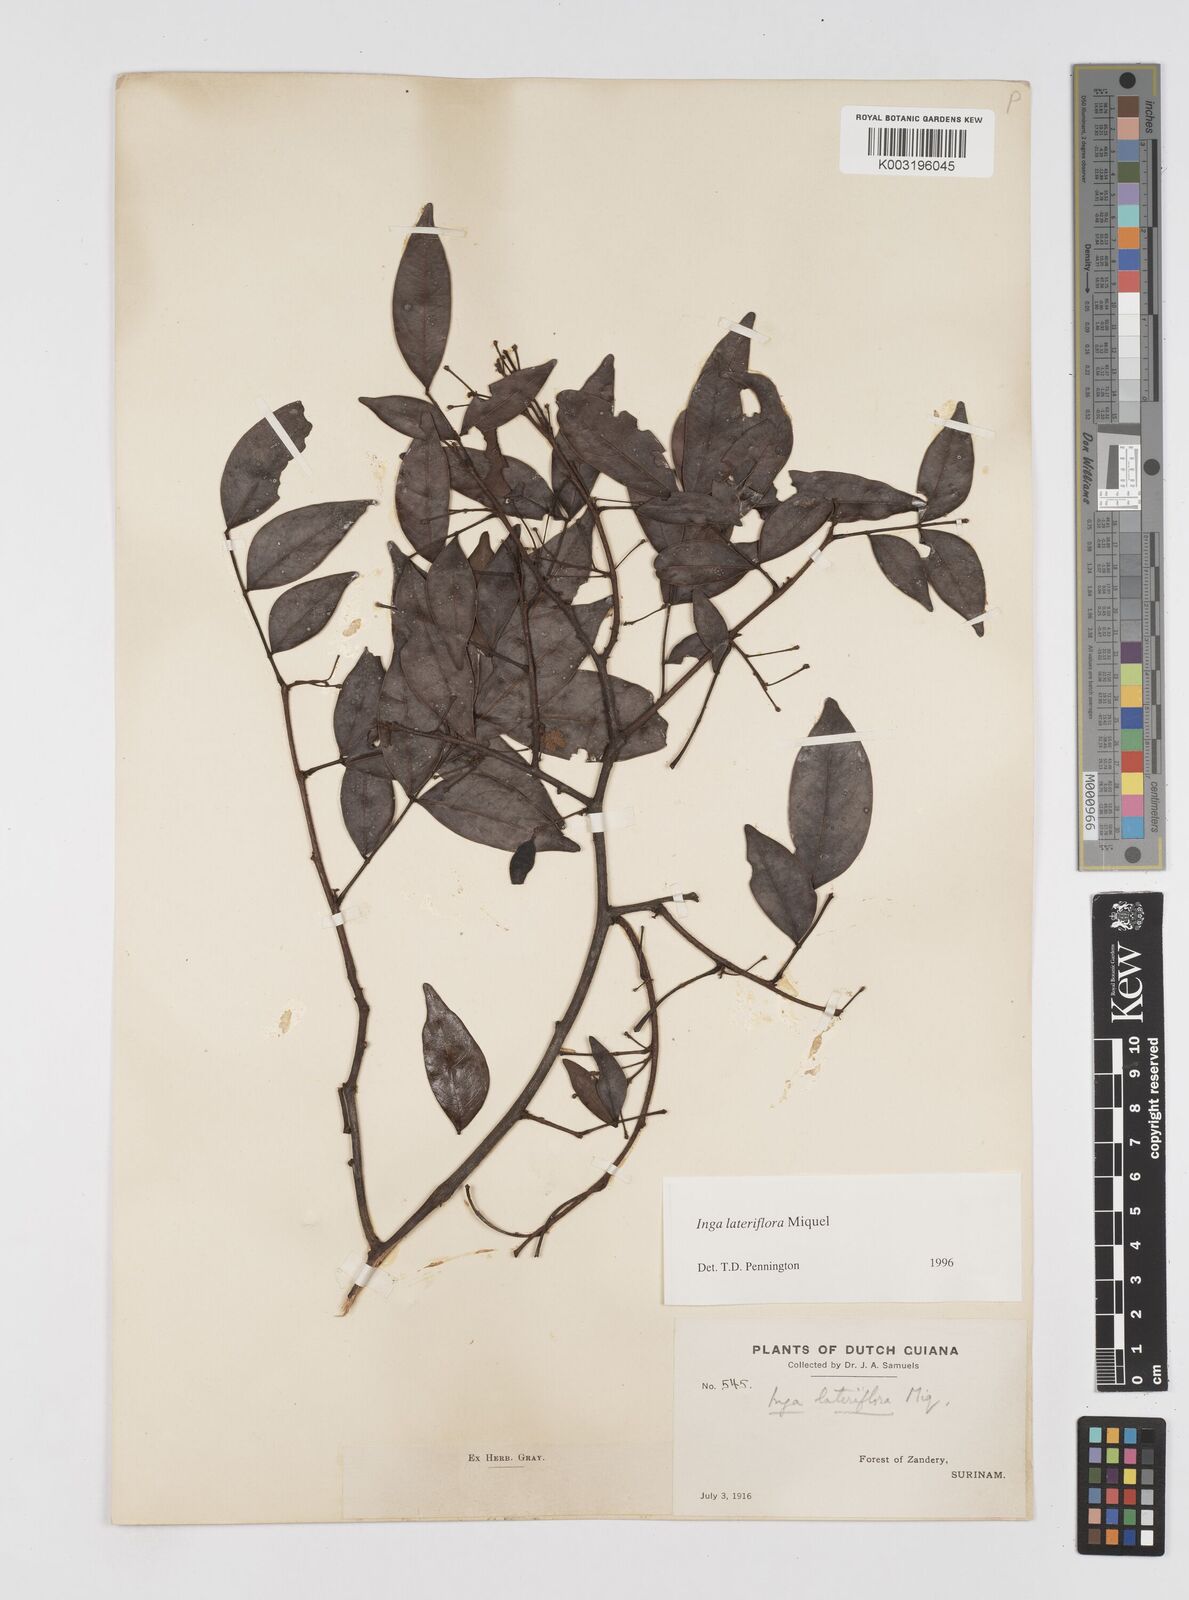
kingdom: Plantae
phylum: Tracheophyta
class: Magnoliopsida
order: Fabales
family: Fabaceae
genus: Inga
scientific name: Inga lateriflora
